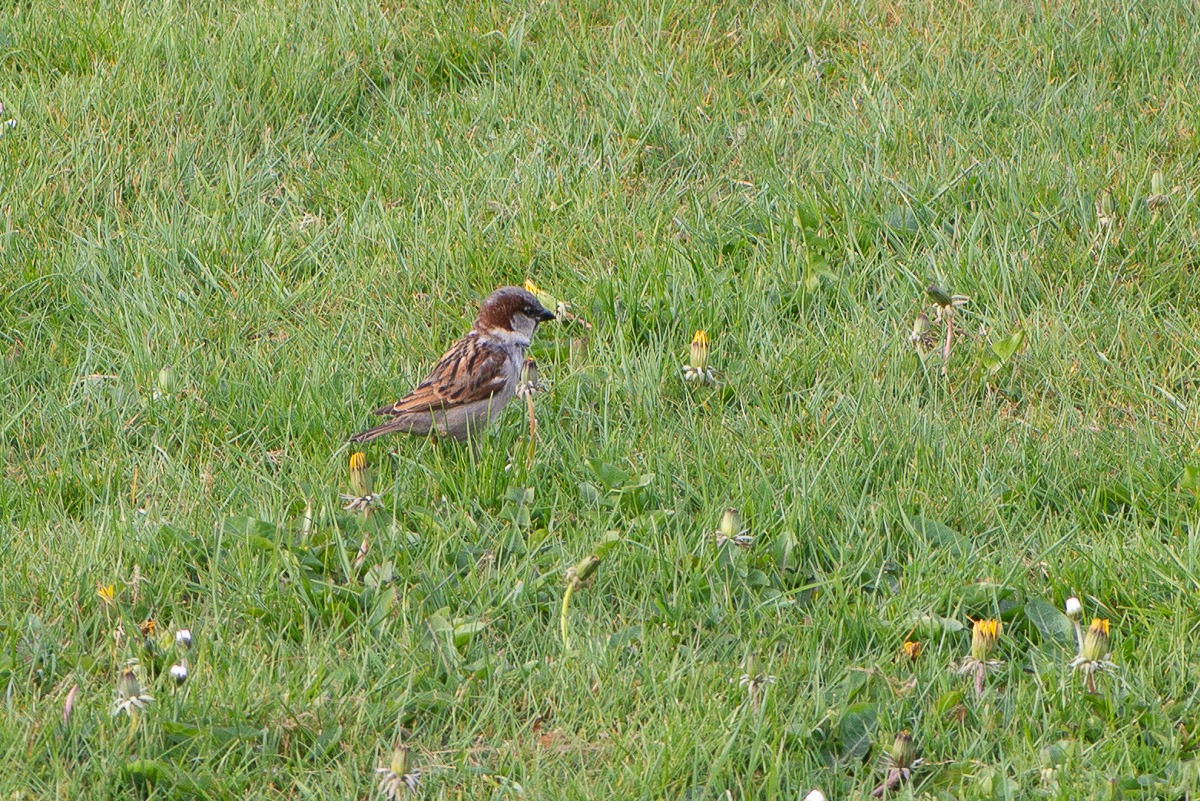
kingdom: Animalia
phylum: Chordata
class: Aves
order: Passeriformes
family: Passeridae
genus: Passer
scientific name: Passer domesticus
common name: Gråspurv
